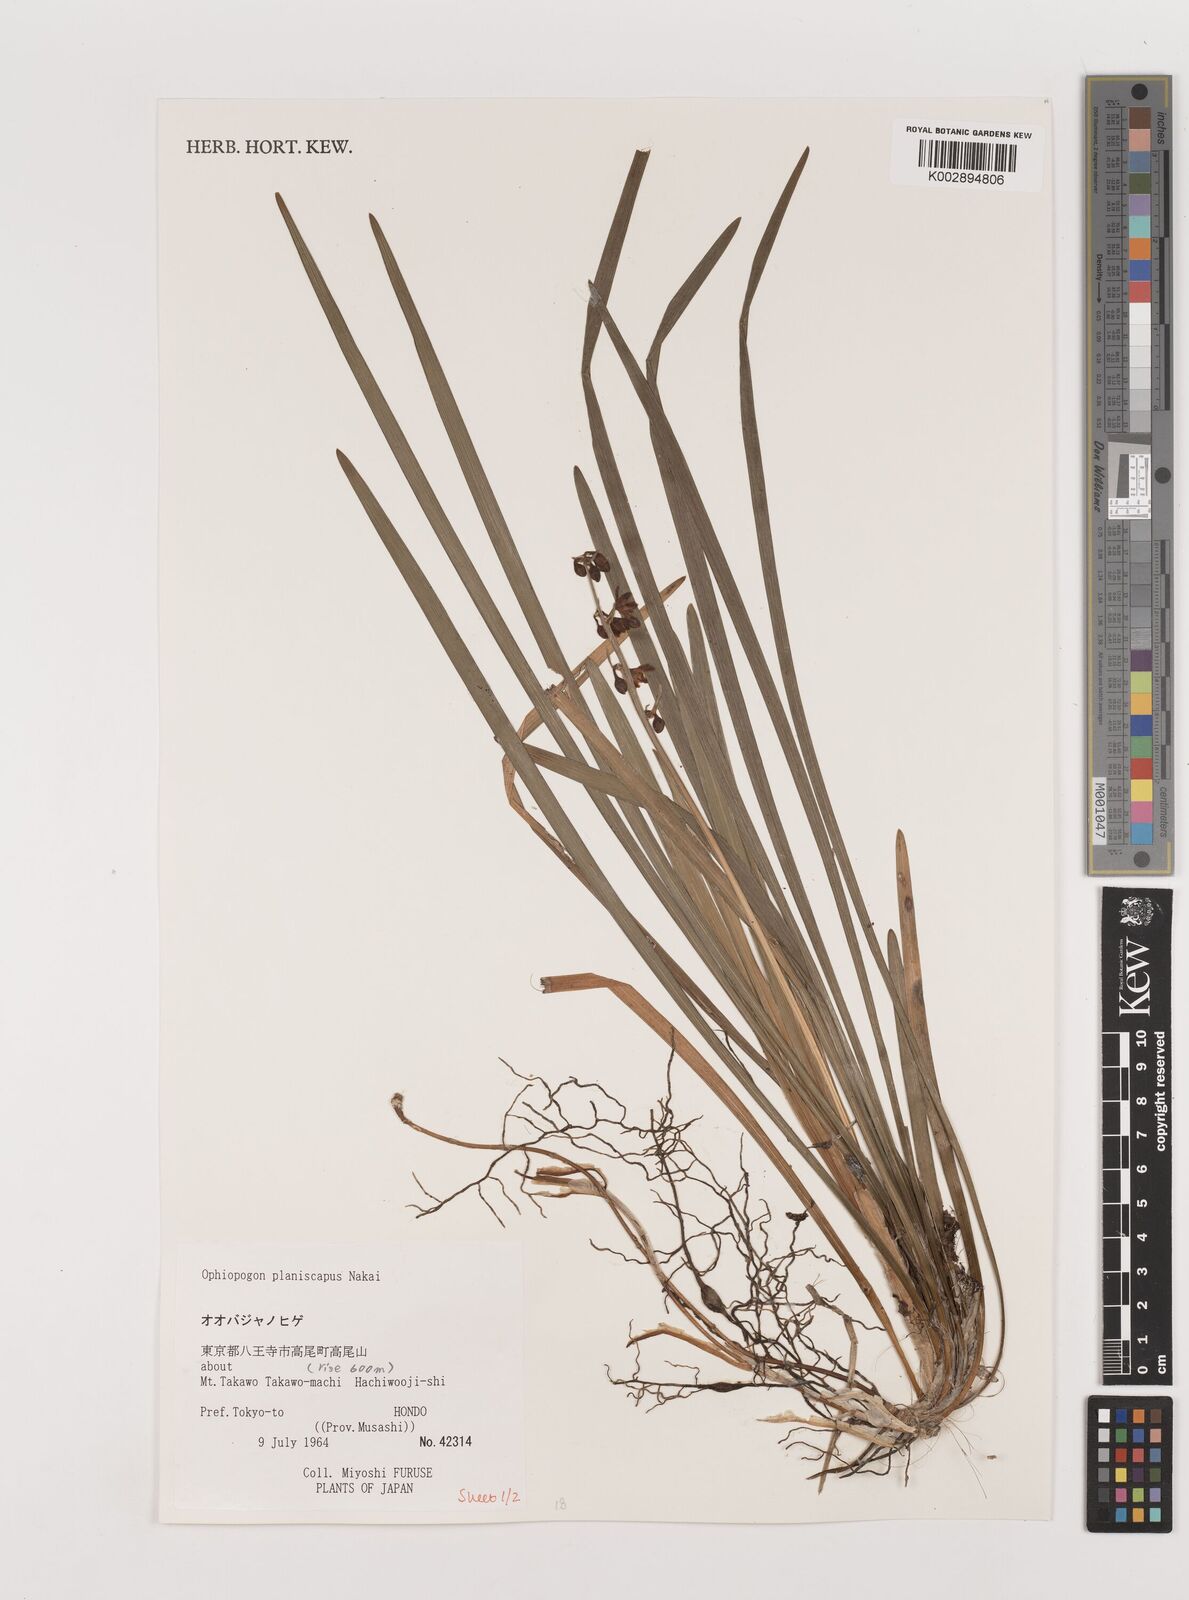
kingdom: Plantae
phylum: Tracheophyta
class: Liliopsida
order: Asparagales
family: Asparagaceae
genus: Ophiopogon
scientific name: Ophiopogon planiscapus
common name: Black mondo
